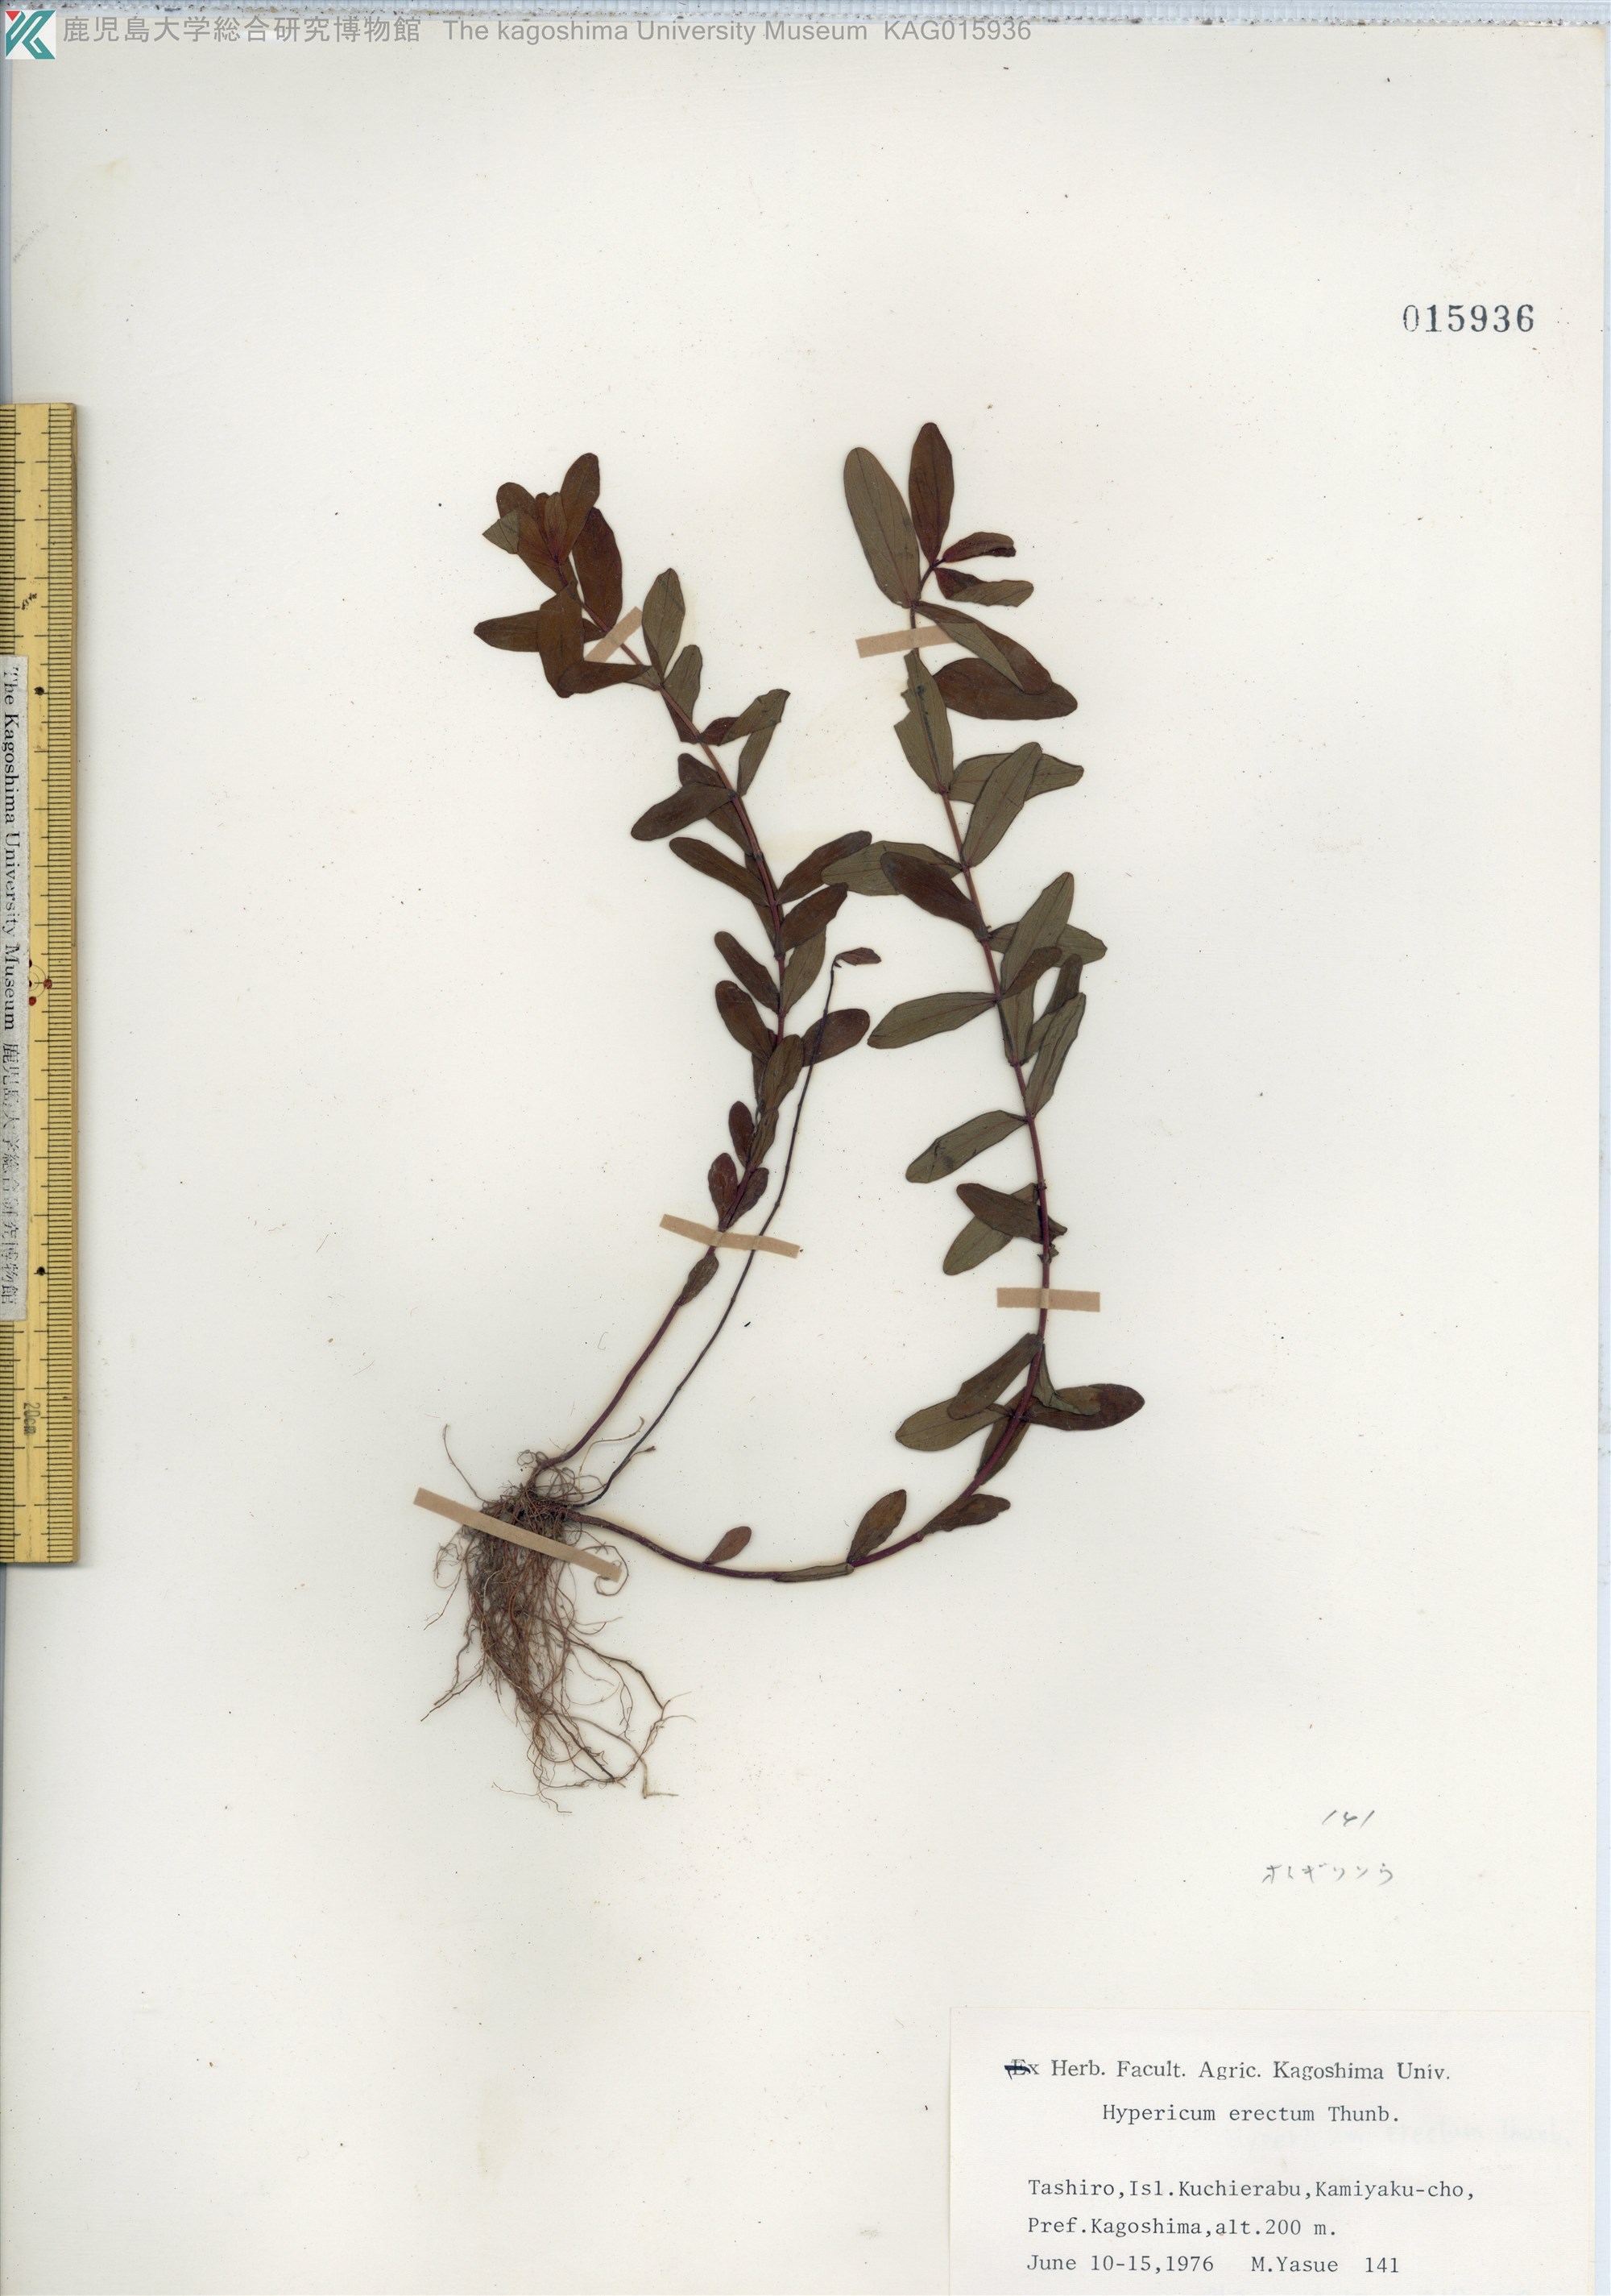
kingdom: Plantae
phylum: Tracheophyta
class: Magnoliopsida
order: Malpighiales
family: Hypericaceae
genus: Hypericum
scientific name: Hypericum erectum
